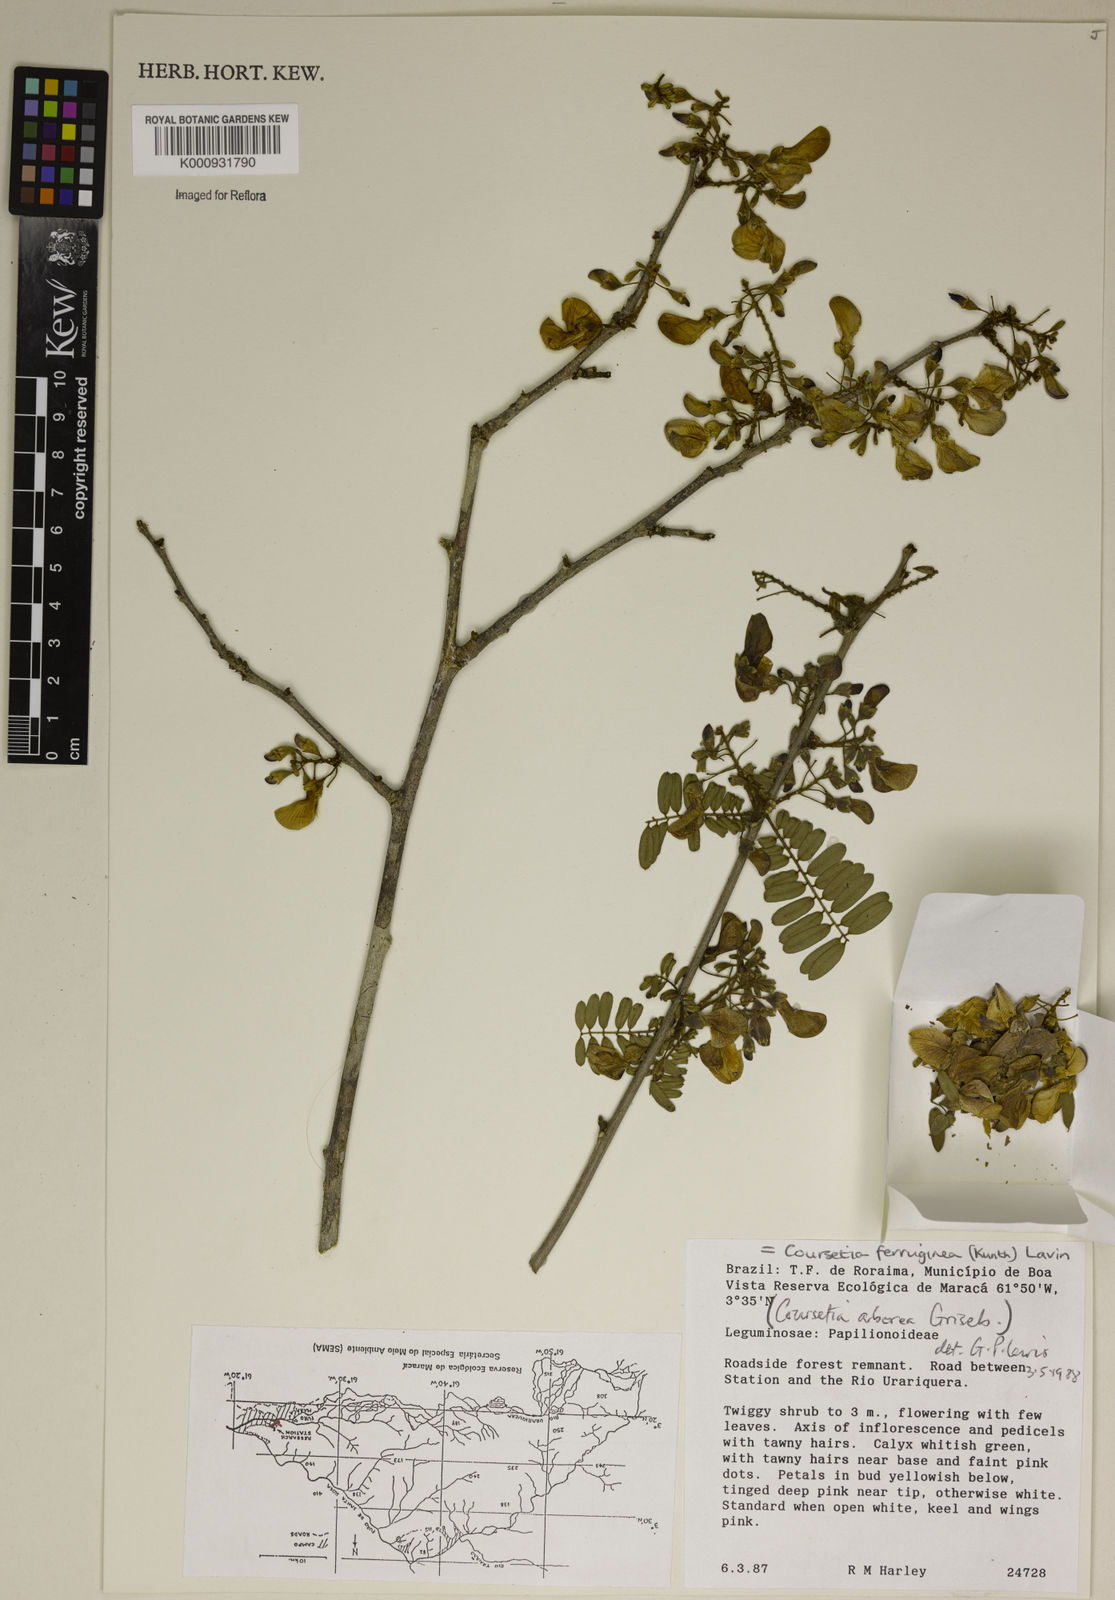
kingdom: Plantae
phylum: Tracheophyta
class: Magnoliopsida
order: Fabales
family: Fabaceae
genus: Coursetia
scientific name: Coursetia ferruginea
